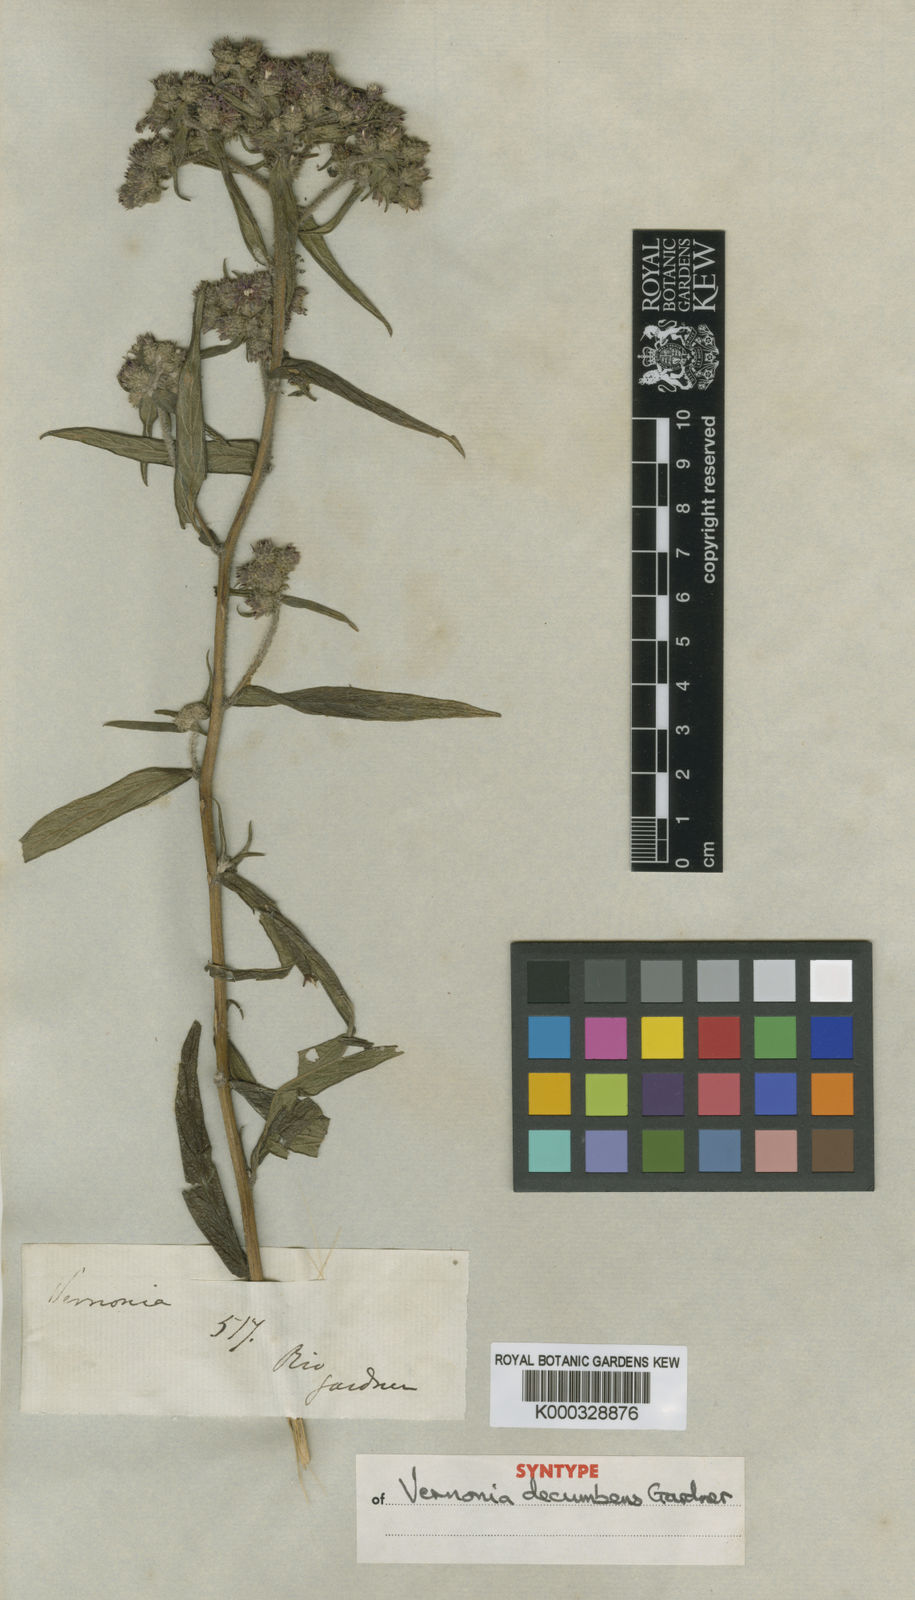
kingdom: Plantae
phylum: Tracheophyta
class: Magnoliopsida
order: Asterales
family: Asteraceae
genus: Lepidaploa
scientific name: Lepidaploa decumbens
